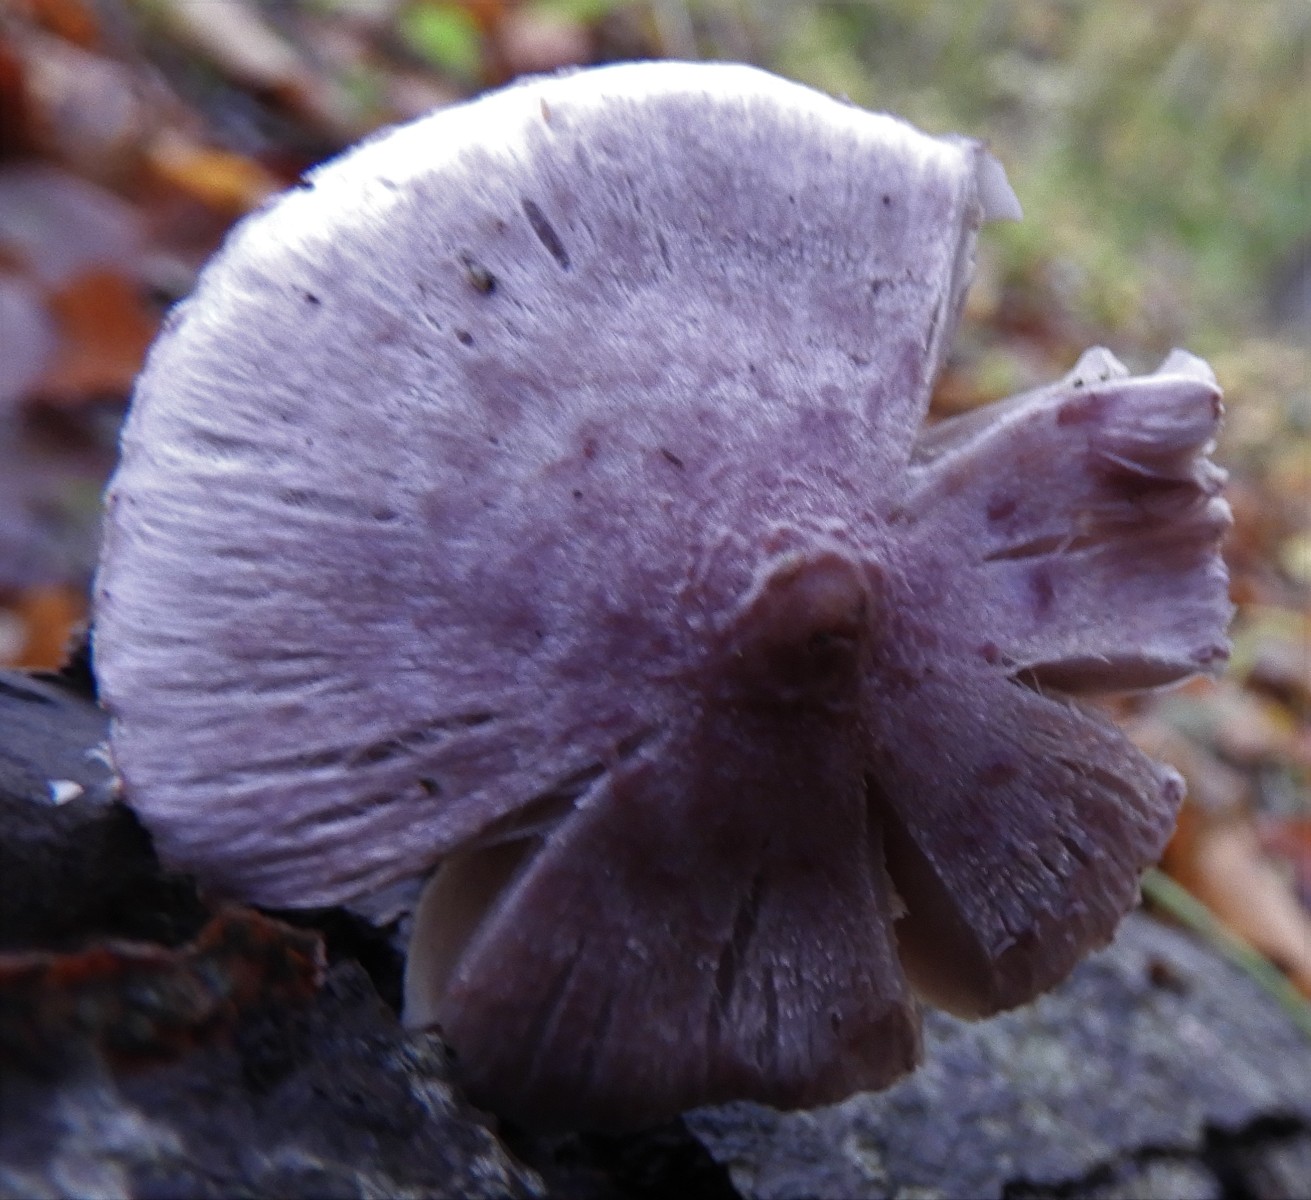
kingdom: Fungi
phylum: Basidiomycota
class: Agaricomycetes
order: Agaricales
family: Inocybaceae
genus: Inocybe
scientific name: Inocybe geophylla
